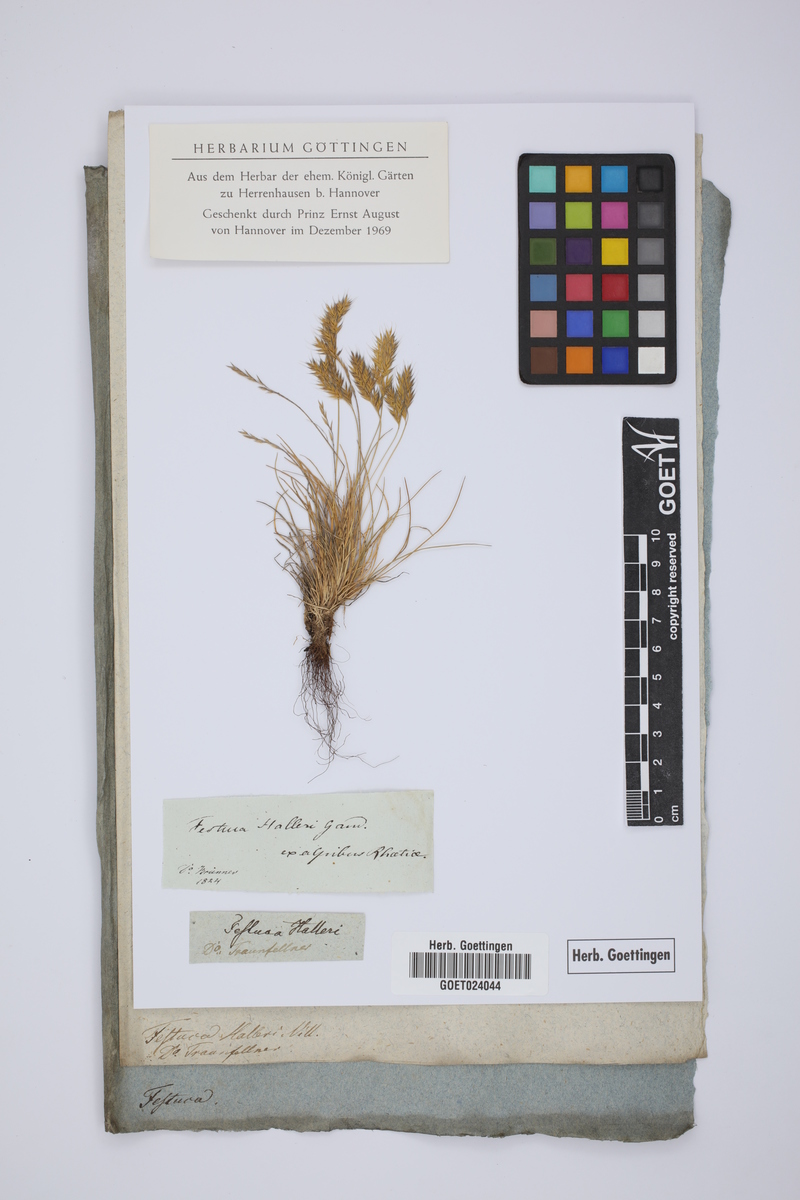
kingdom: Plantae
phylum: Tracheophyta
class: Liliopsida
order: Poales
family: Poaceae
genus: Festuca
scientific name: Festuca halleri
